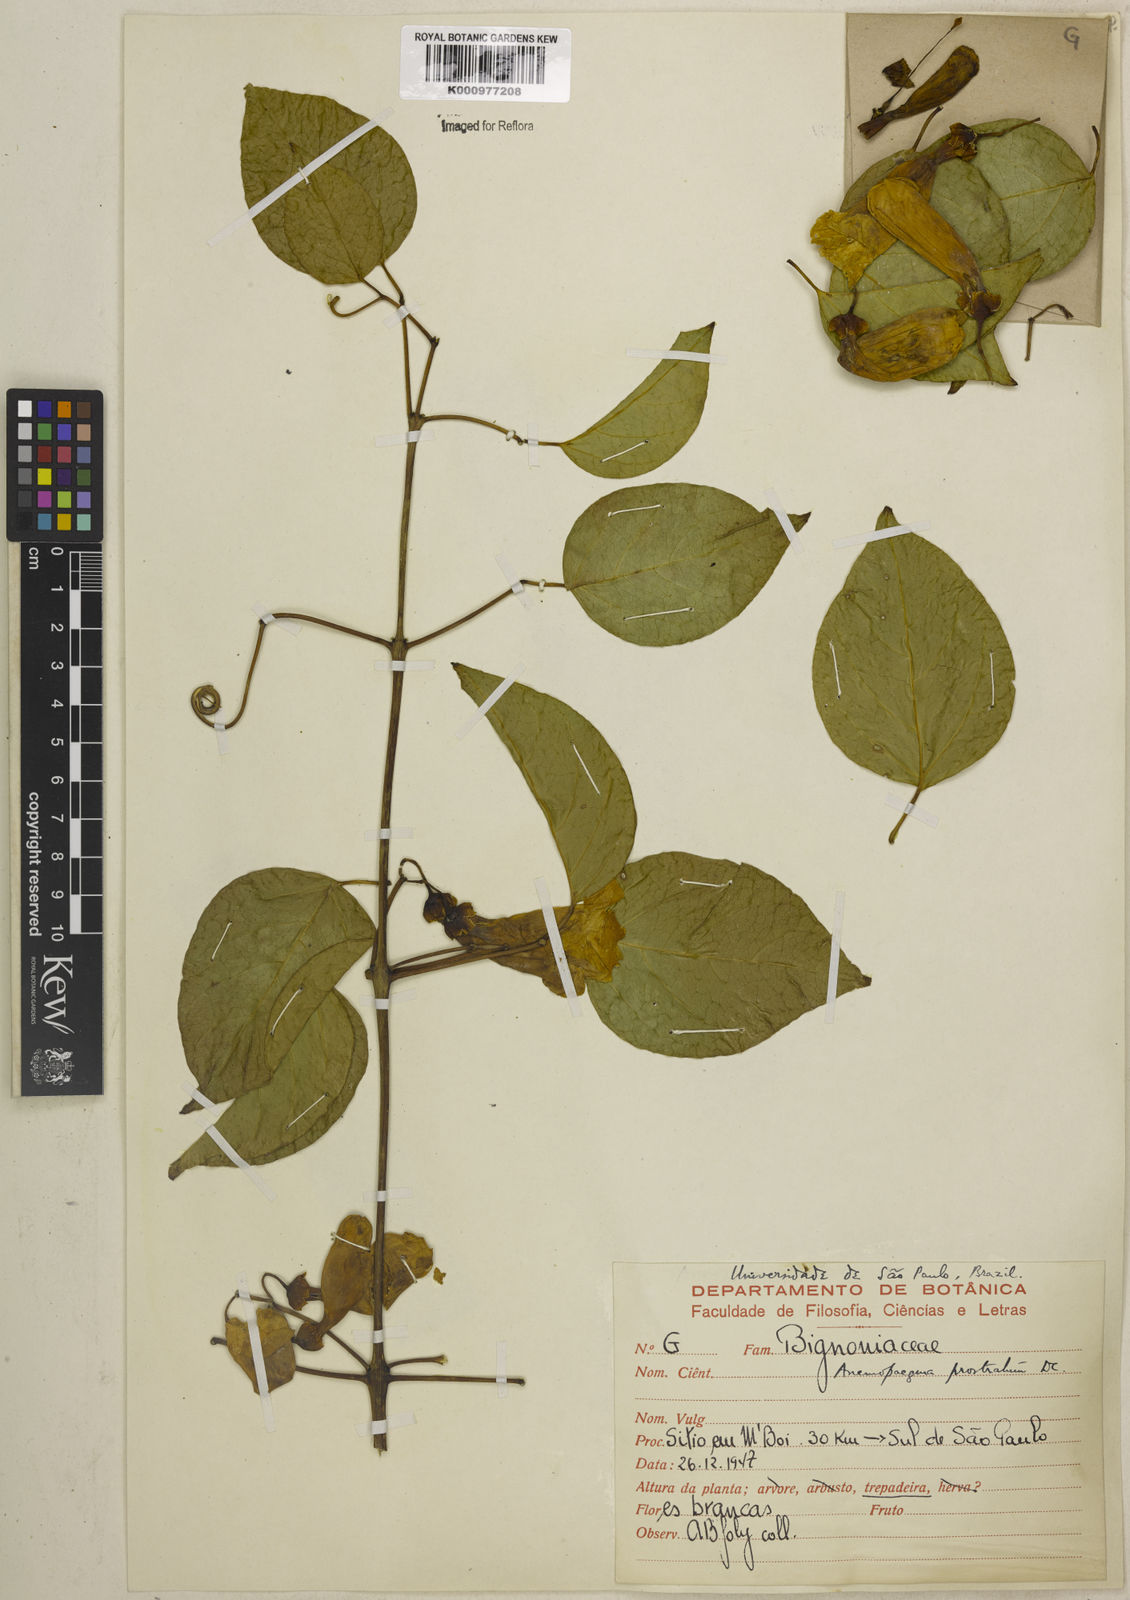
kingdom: Plantae
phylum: Tracheophyta
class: Magnoliopsida
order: Lamiales
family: Bignoniaceae
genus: Anemopaegma
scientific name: Anemopaegma prostratum
